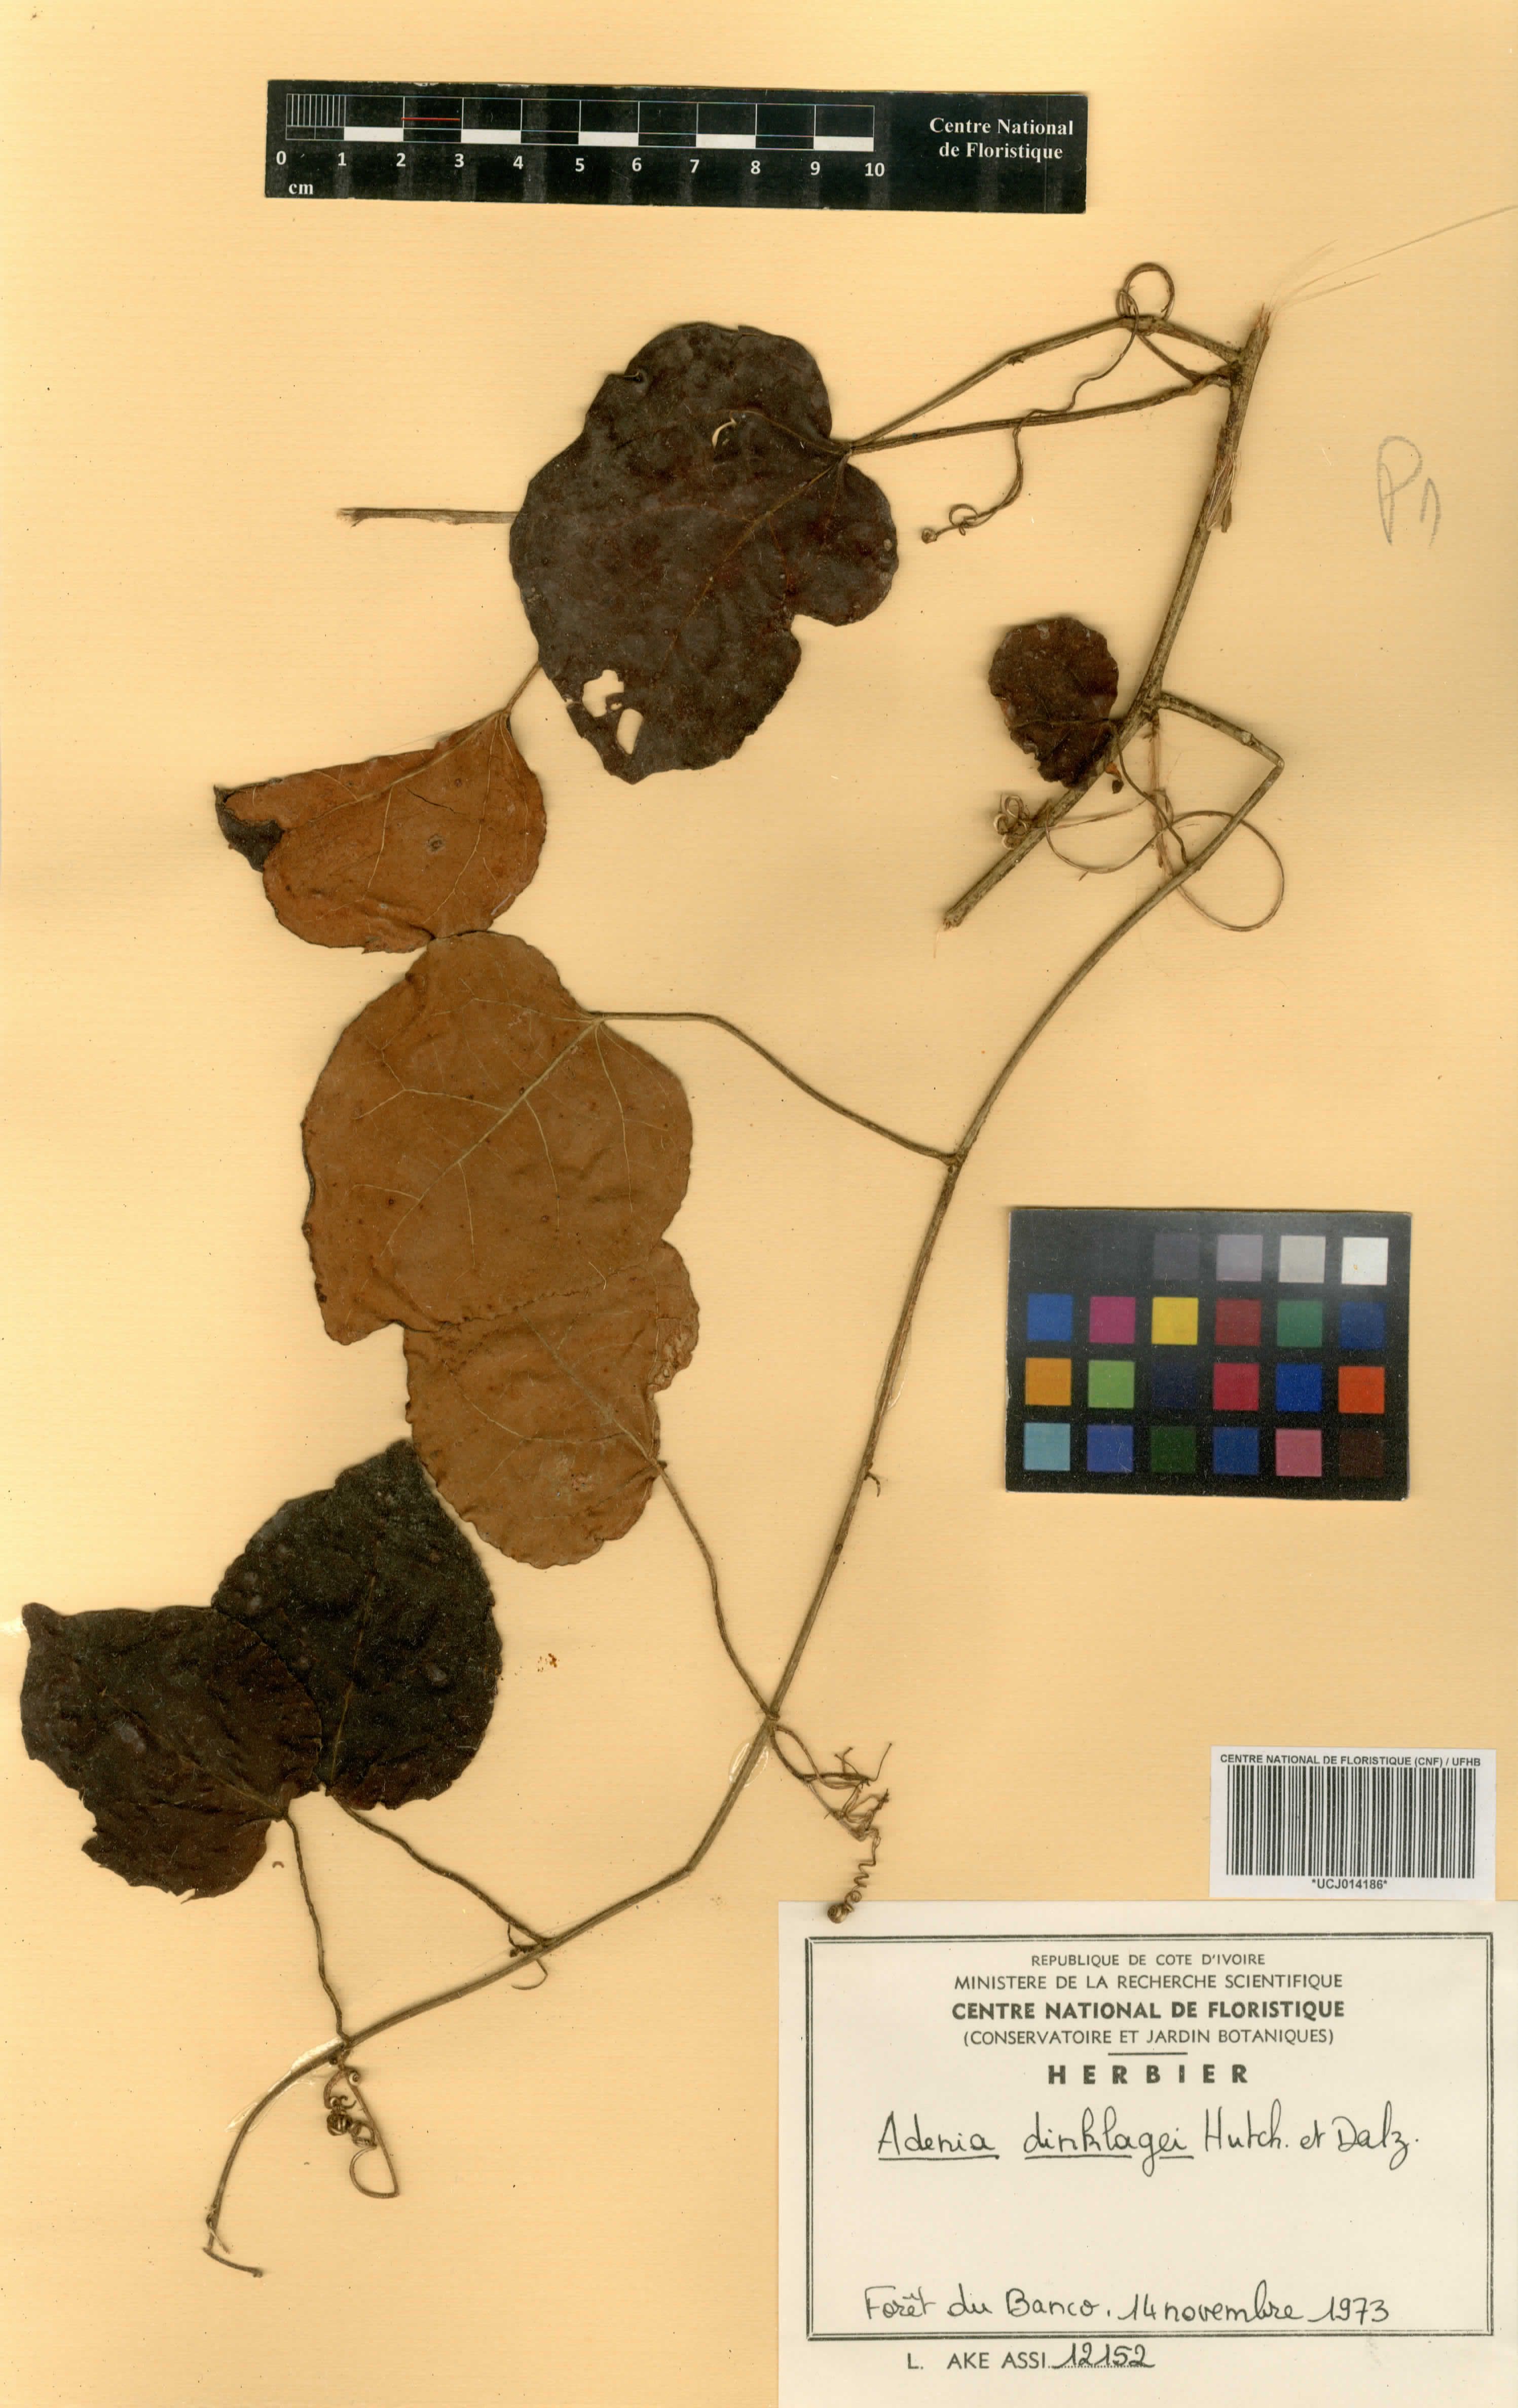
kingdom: Plantae
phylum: Tracheophyta
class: Magnoliopsida
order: Malpighiales
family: Passifloraceae
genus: Adenia
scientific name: Adenia dinklagei
